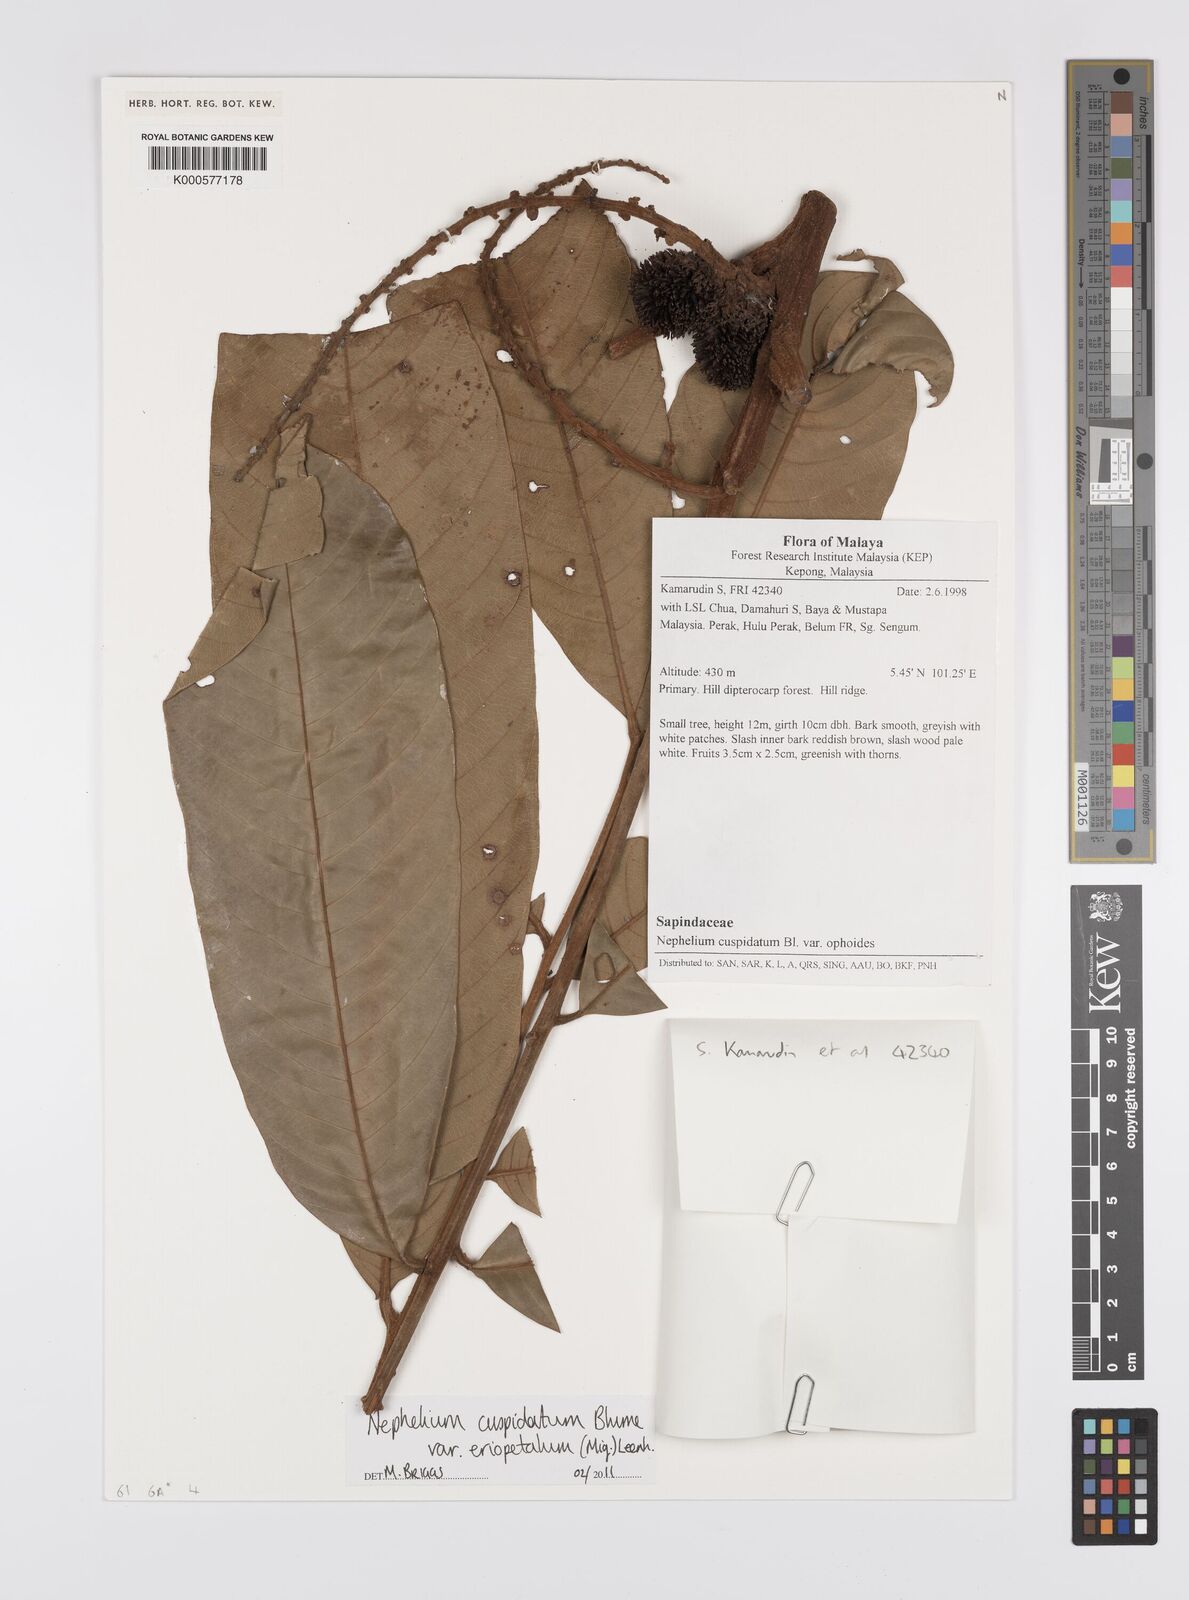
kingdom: Plantae
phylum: Tracheophyta
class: Magnoliopsida
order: Sapindales
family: Sapindaceae
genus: Nephelium
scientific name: Nephelium cuspidatum
